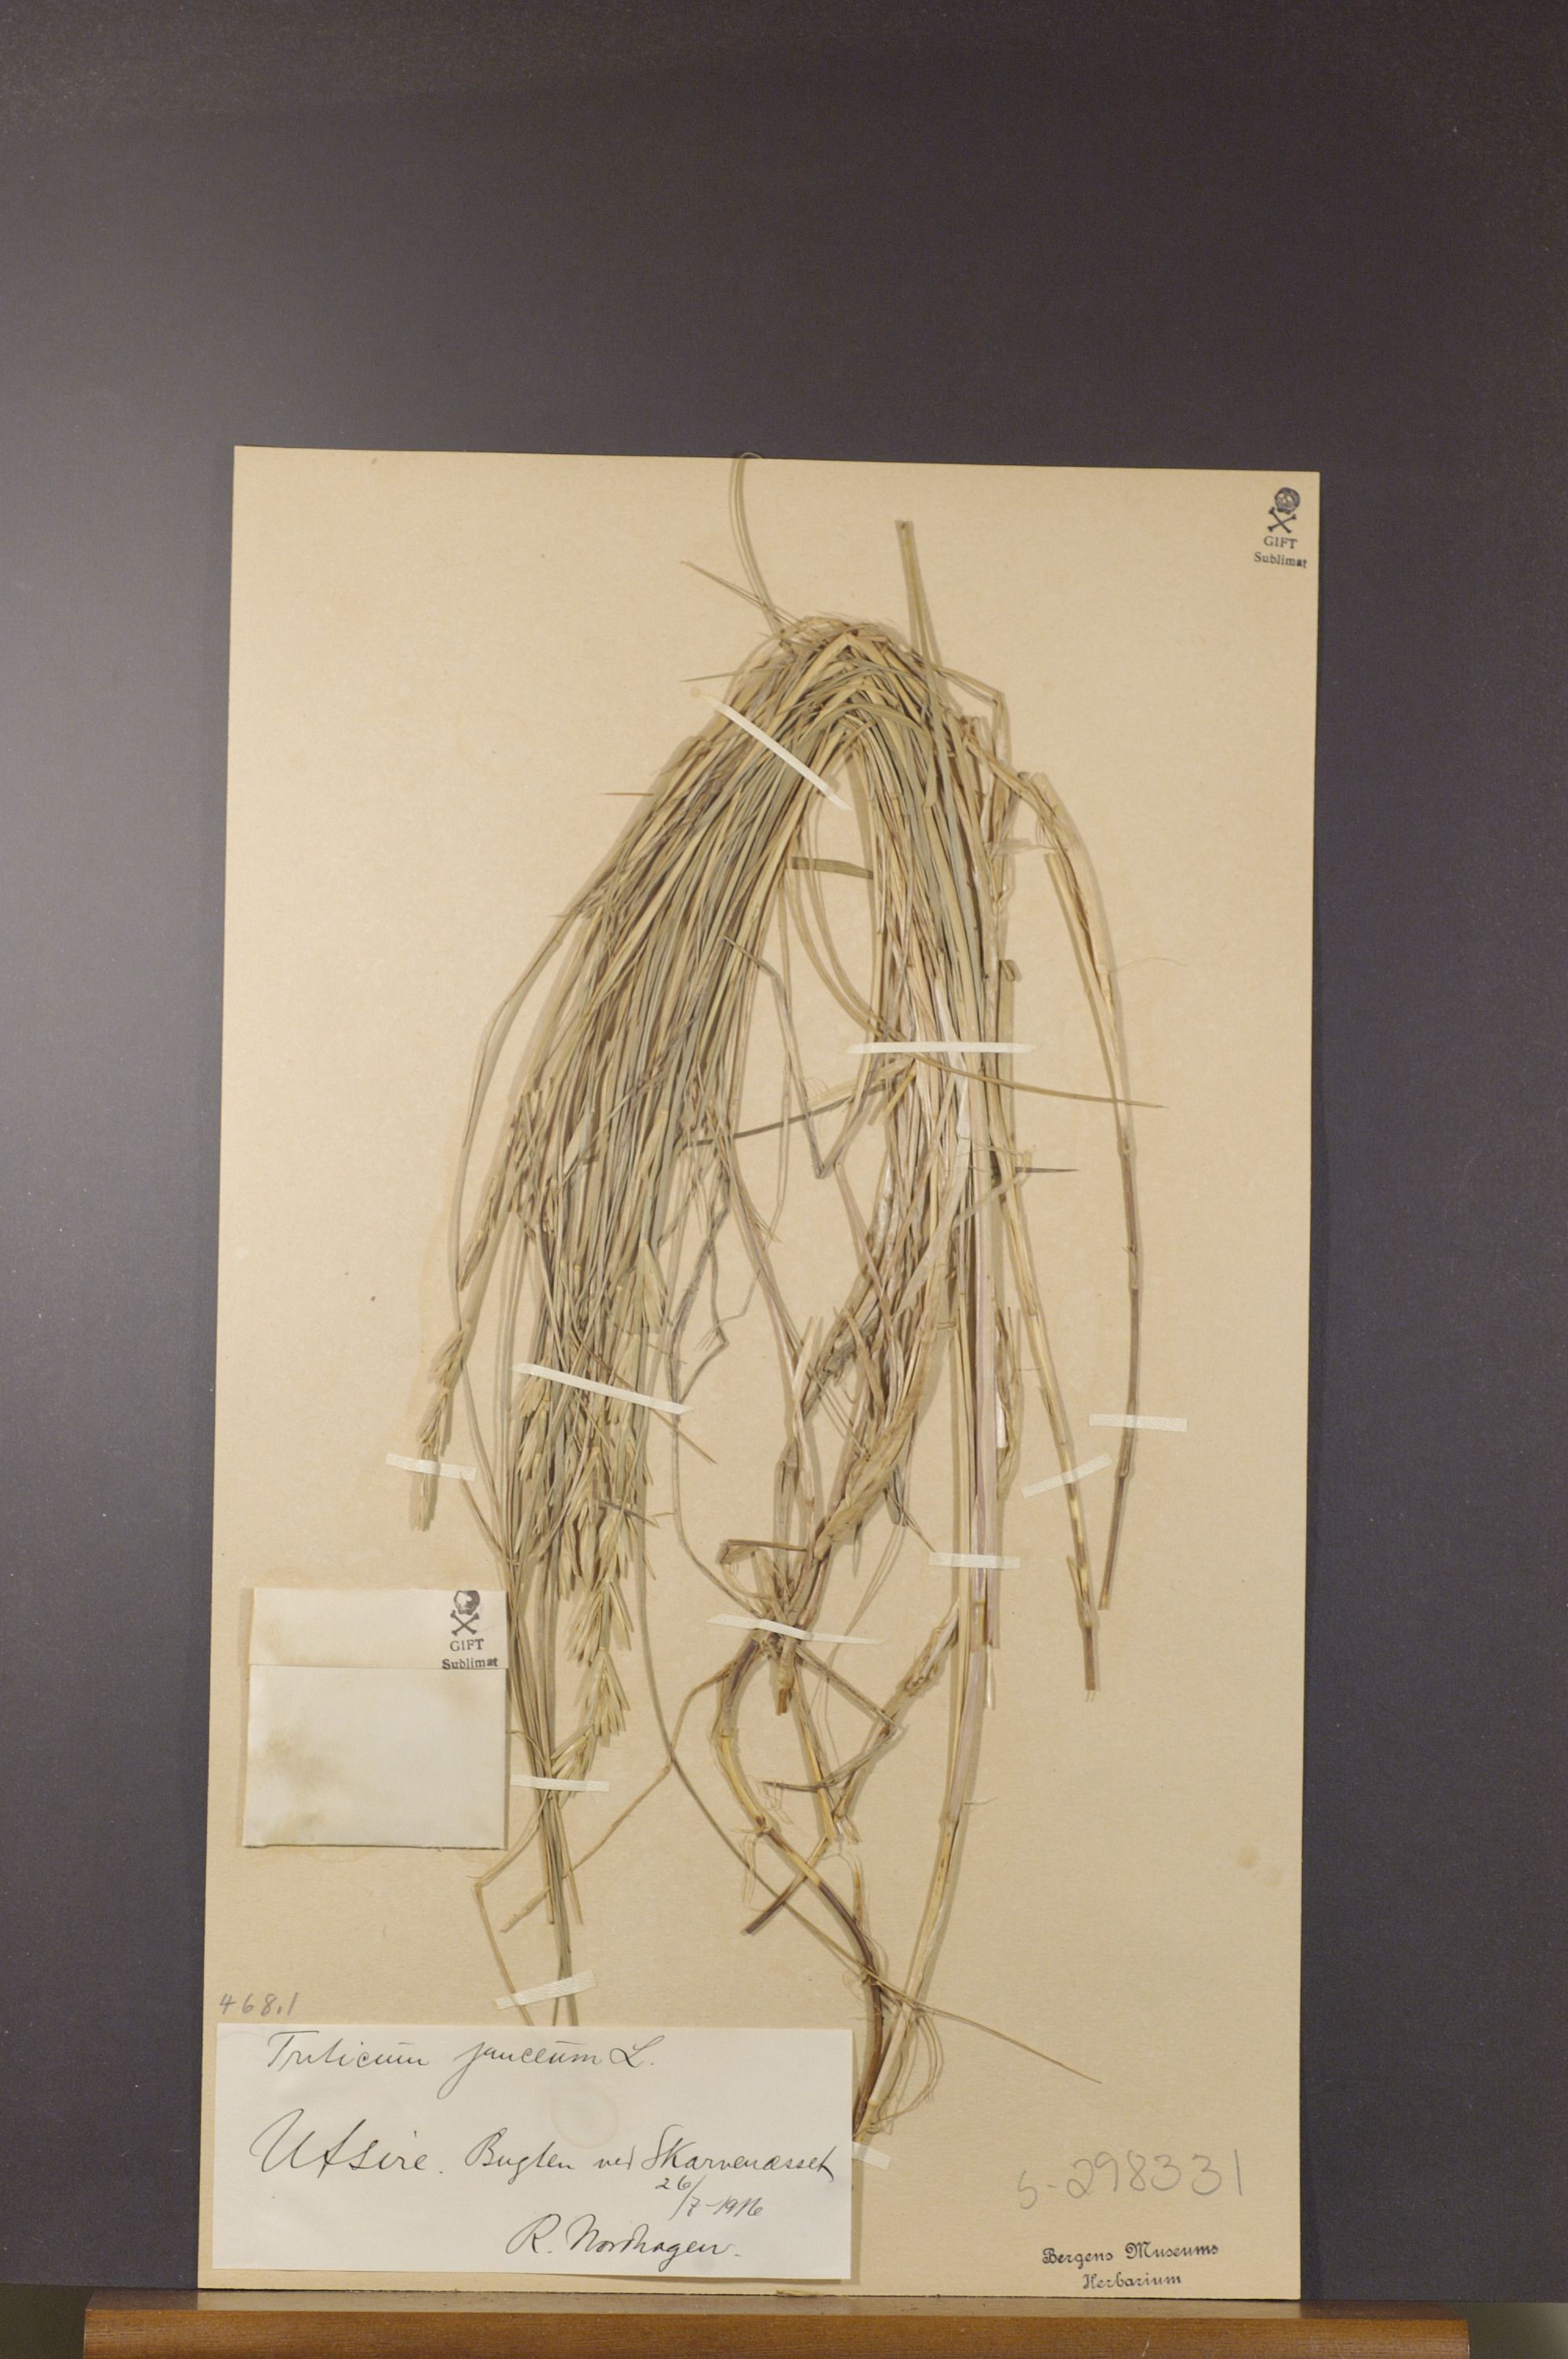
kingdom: Plantae
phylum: Tracheophyta
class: Liliopsida
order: Poales
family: Poaceae
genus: Thinopyrum
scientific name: Thinopyrum junceum
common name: Russian wheatgrass
